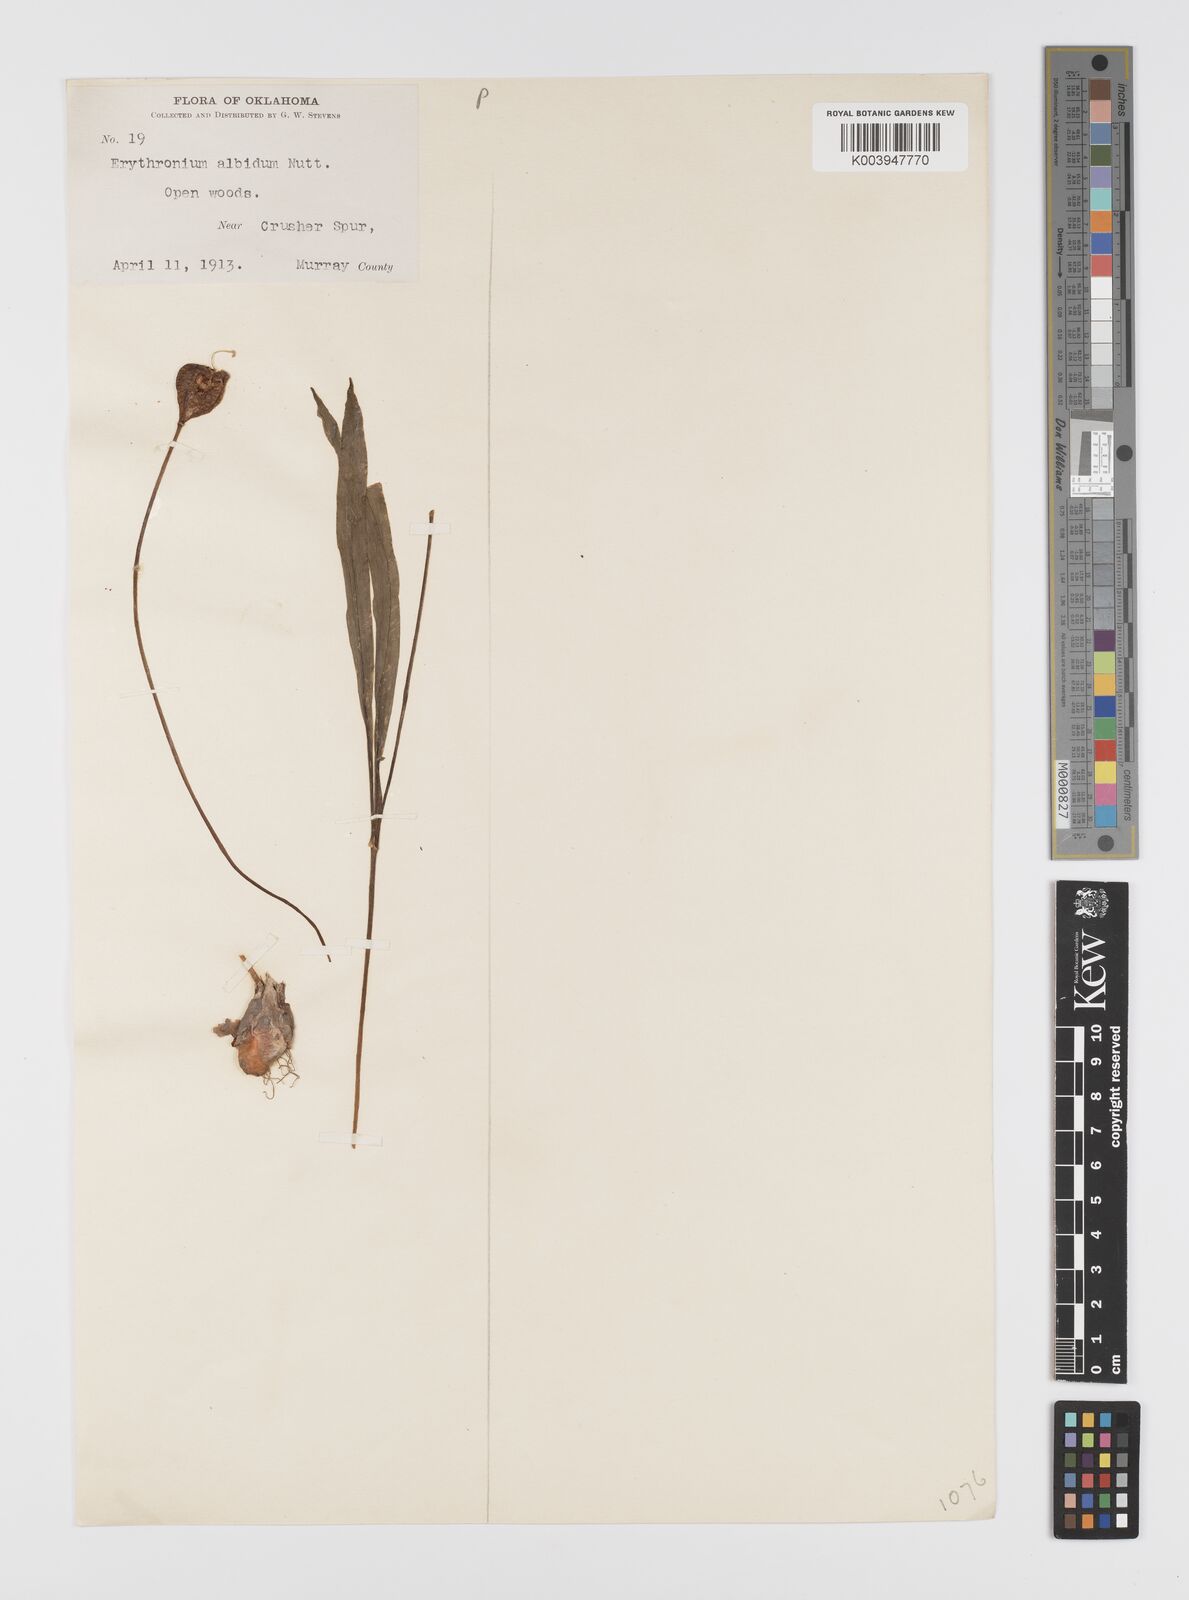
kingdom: Plantae
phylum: Tracheophyta
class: Liliopsida
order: Liliales
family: Liliaceae
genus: Erythronium
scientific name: Erythronium albidum
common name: White trout-lily
